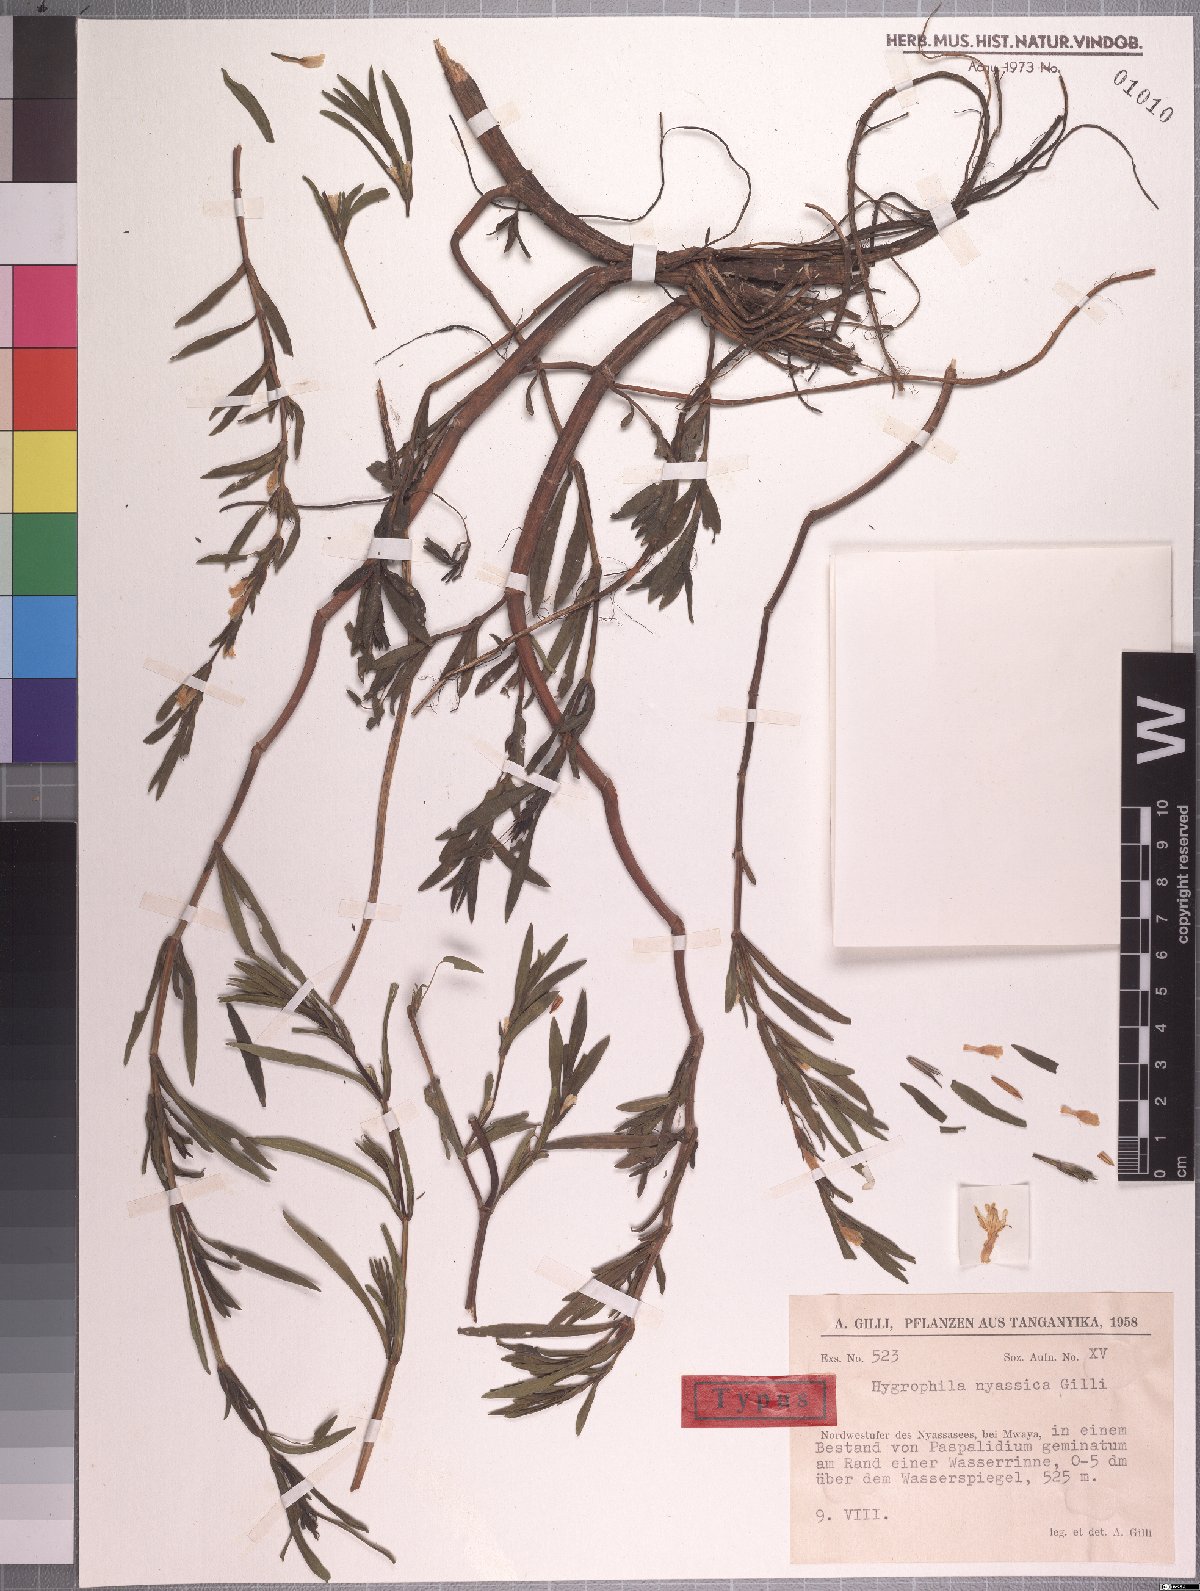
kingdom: Plantae
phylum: Tracheophyta
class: Magnoliopsida
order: Lamiales
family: Acanthaceae
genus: Hygrophila
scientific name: Hygrophila pobeguinii
